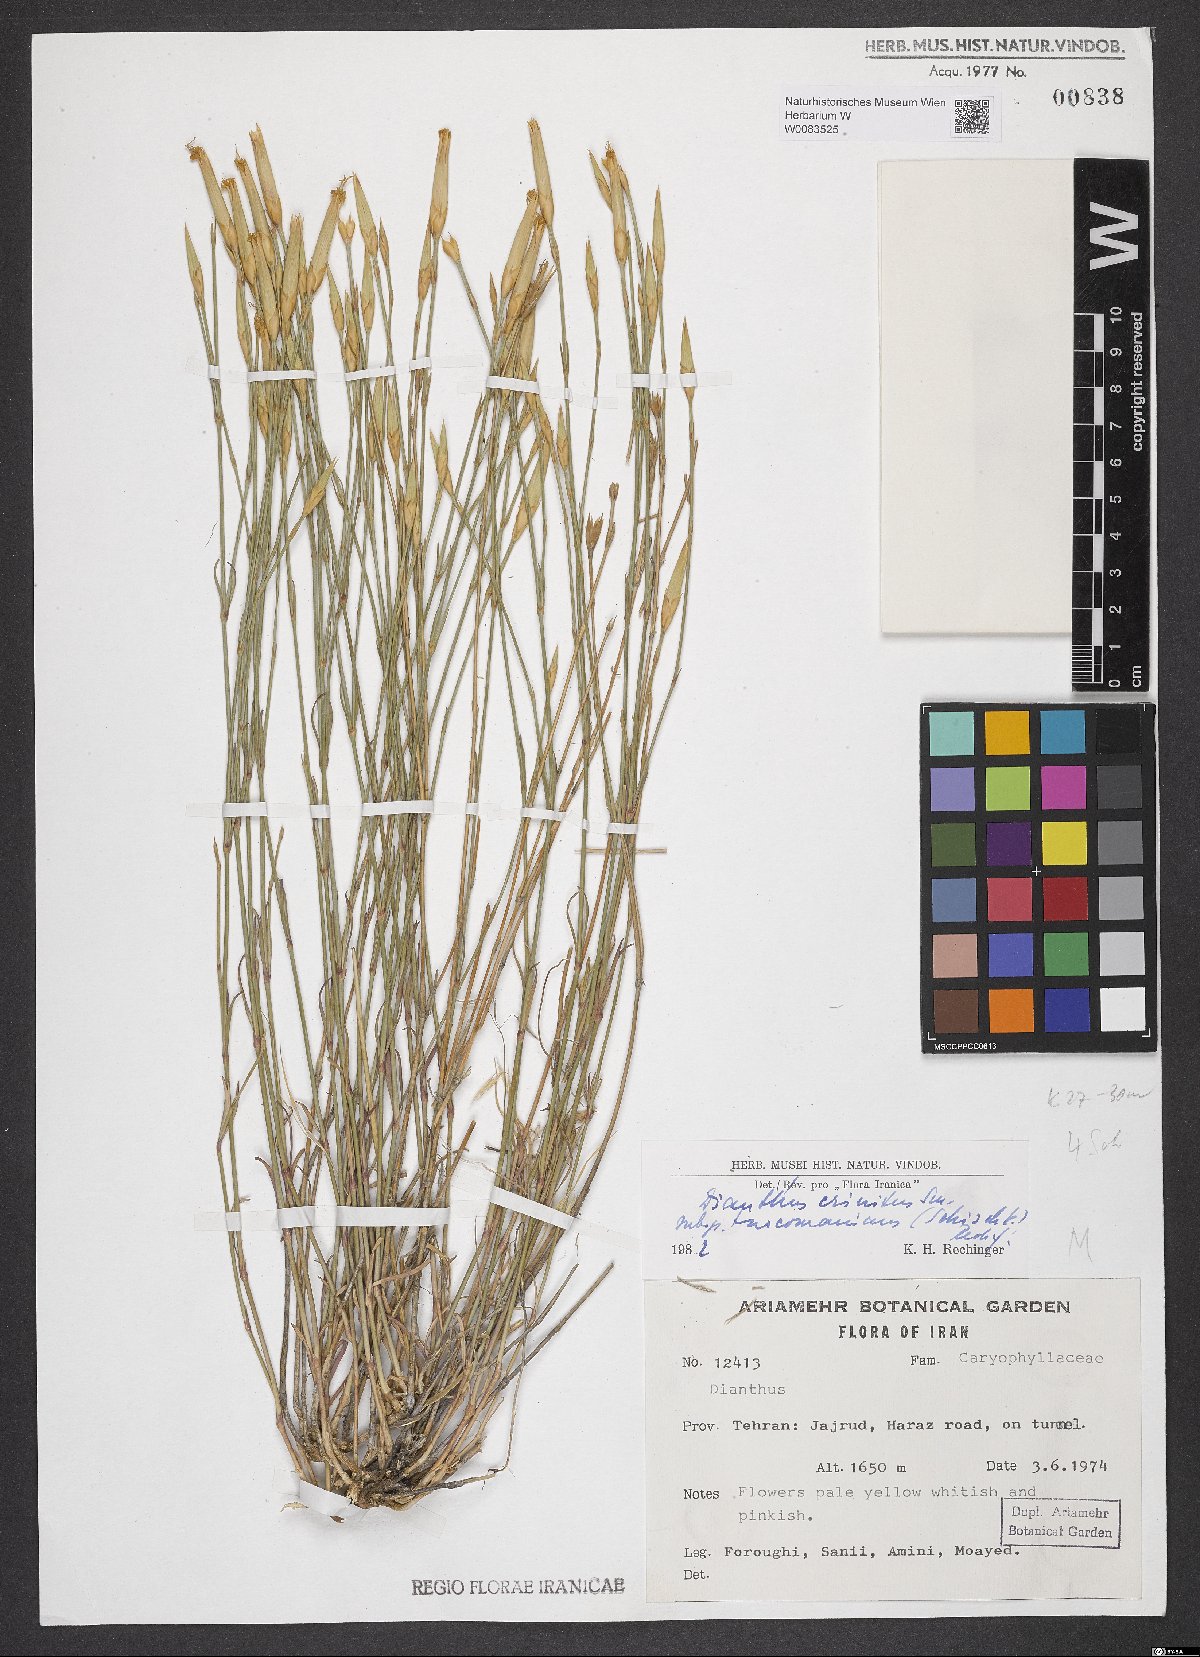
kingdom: Plantae
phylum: Tracheophyta
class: Magnoliopsida
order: Caryophyllales
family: Caryophyllaceae
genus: Dianthus
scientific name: Dianthus turkestanicus
